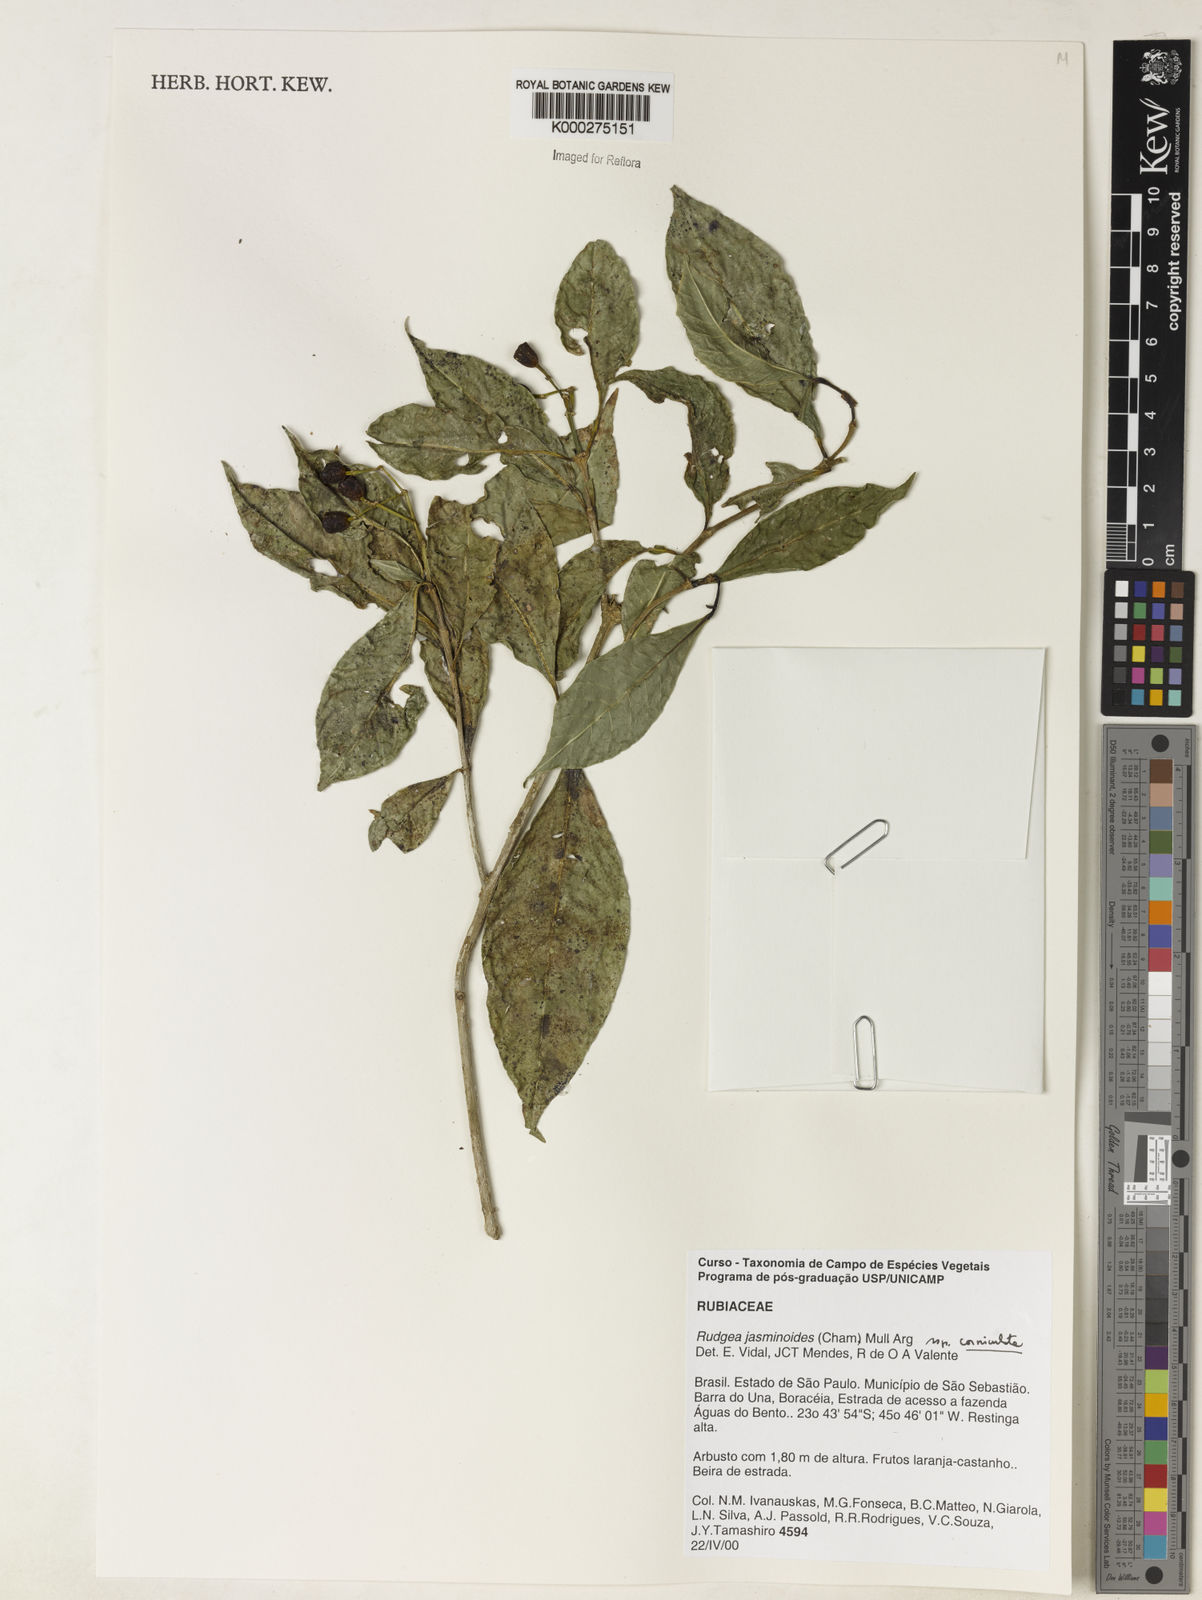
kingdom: Plantae
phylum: Tracheophyta
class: Magnoliopsida
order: Gentianales
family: Rubiaceae
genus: Rudgea
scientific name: Rudgea jasminoides
